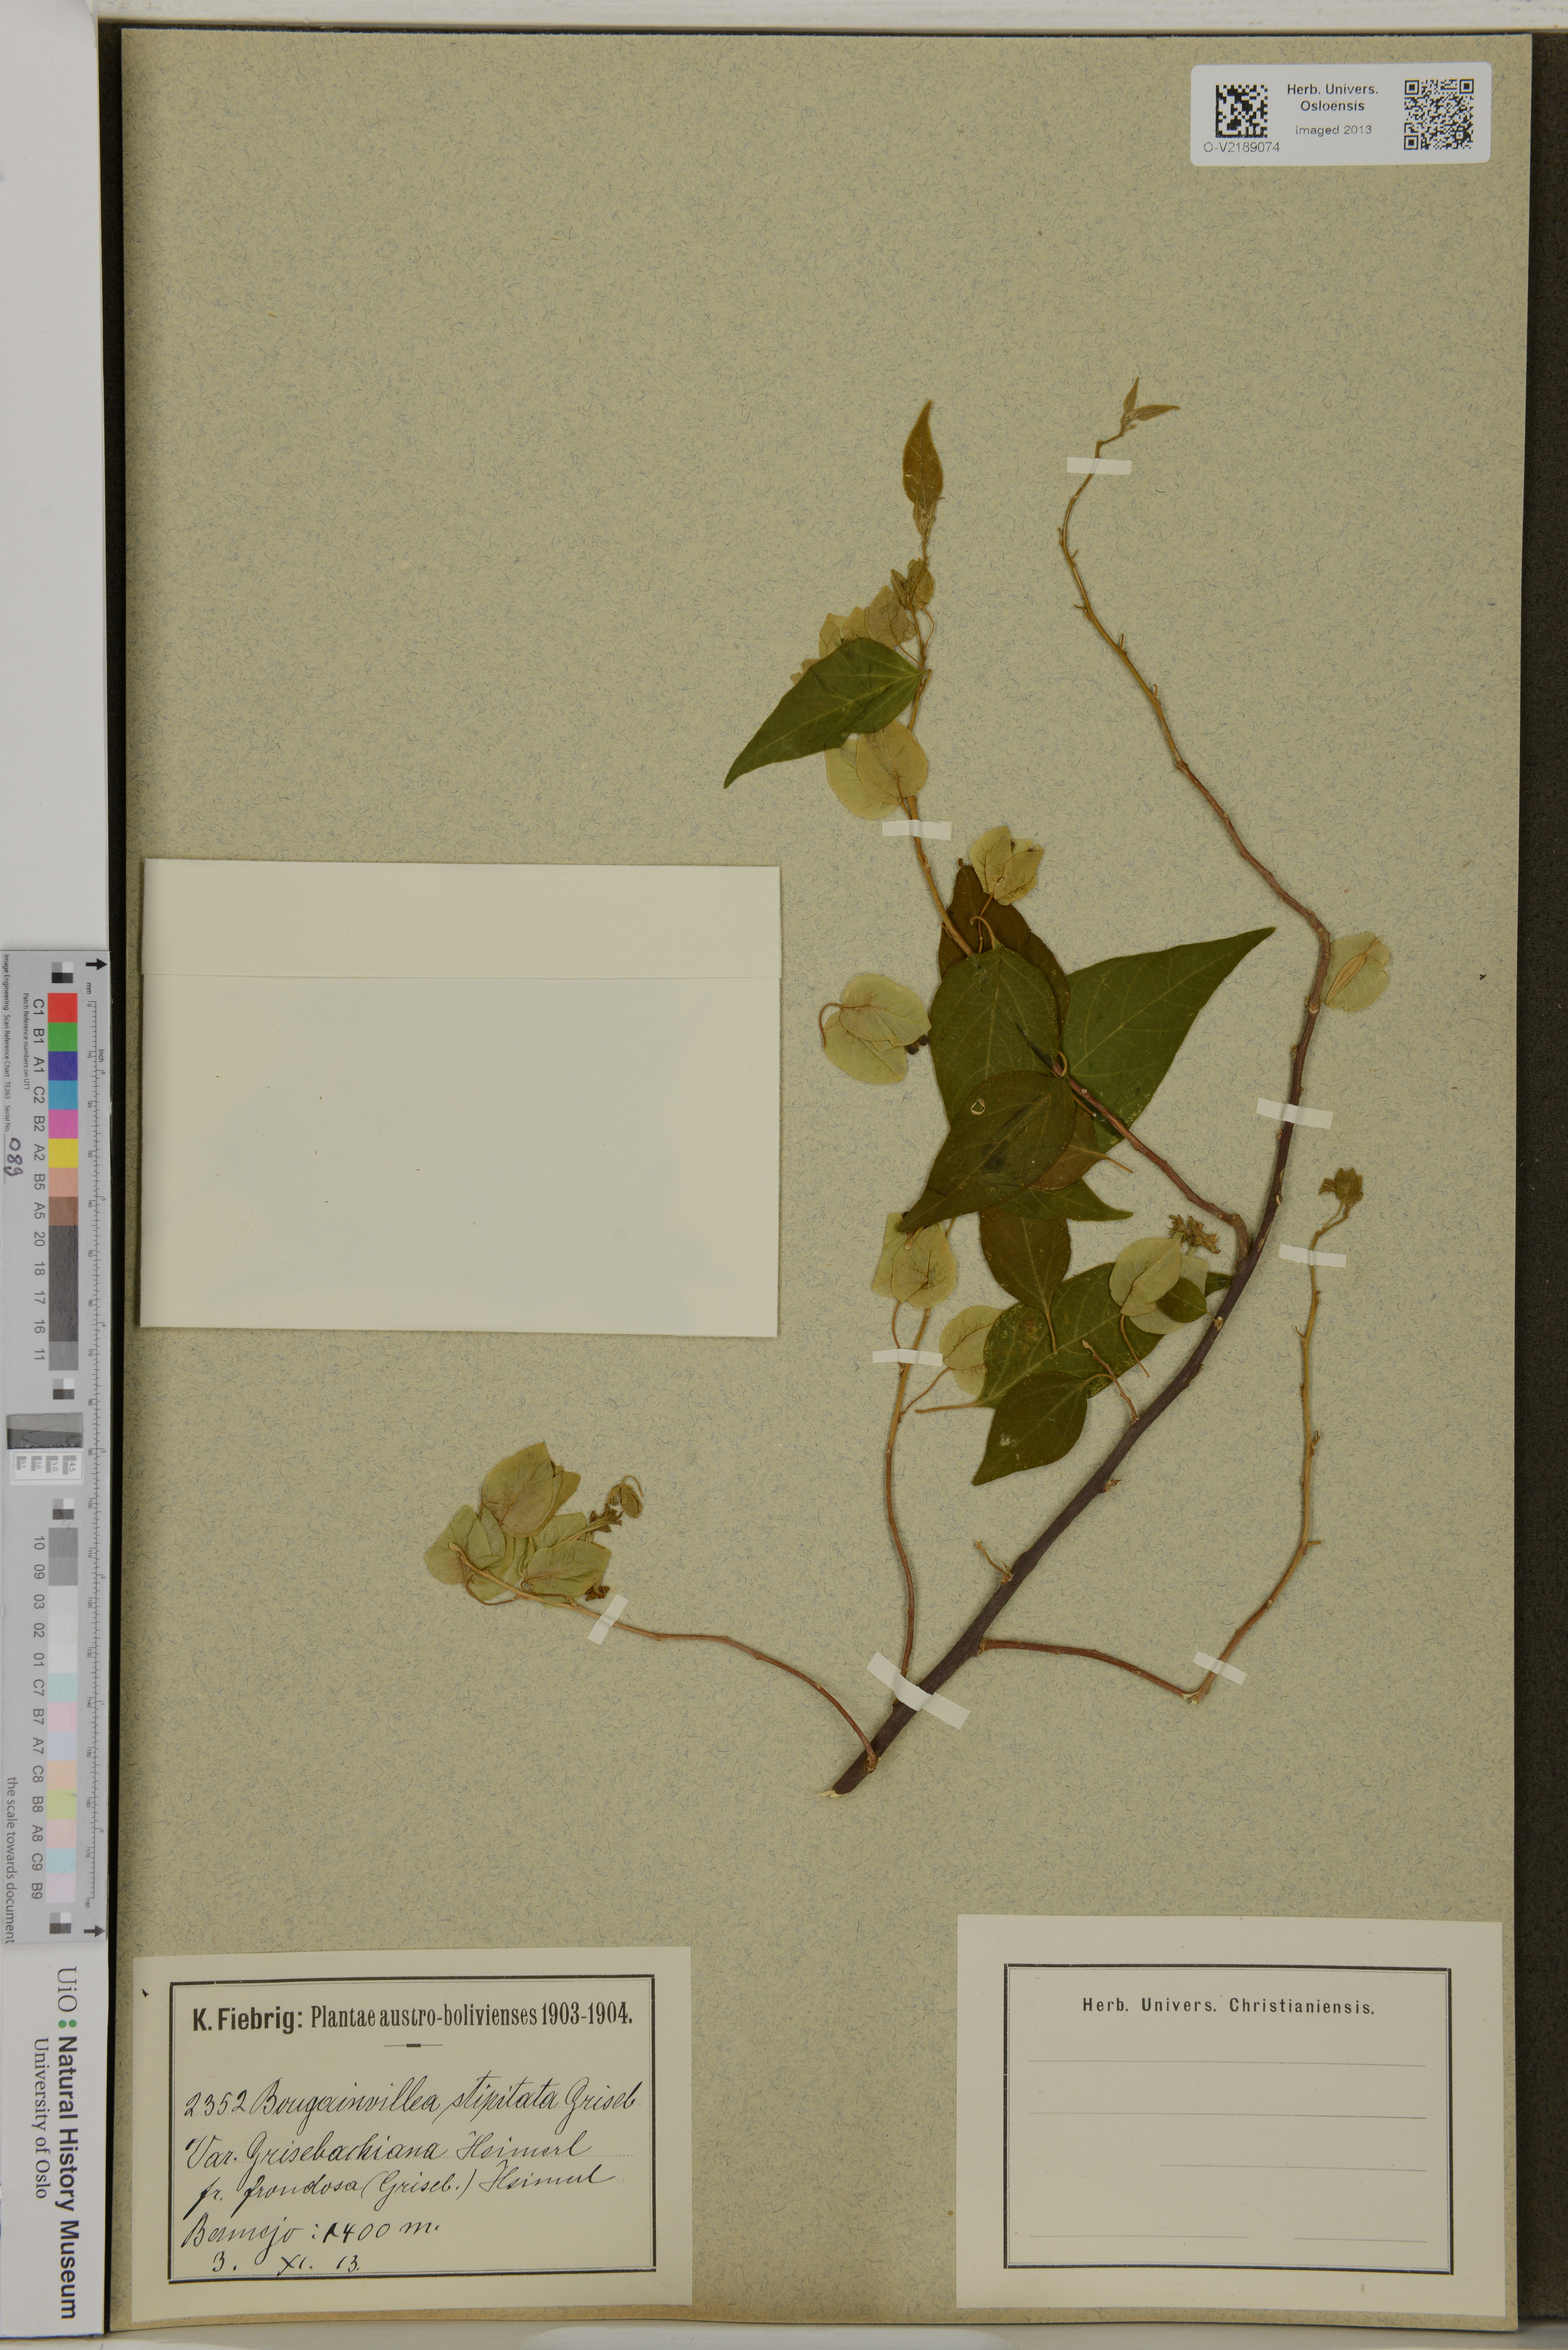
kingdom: Plantae
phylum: Tracheophyta
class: Magnoliopsida
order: Caryophyllales
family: Nyctaginaceae
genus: Bougainvillea
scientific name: Bougainvillea stipitata
